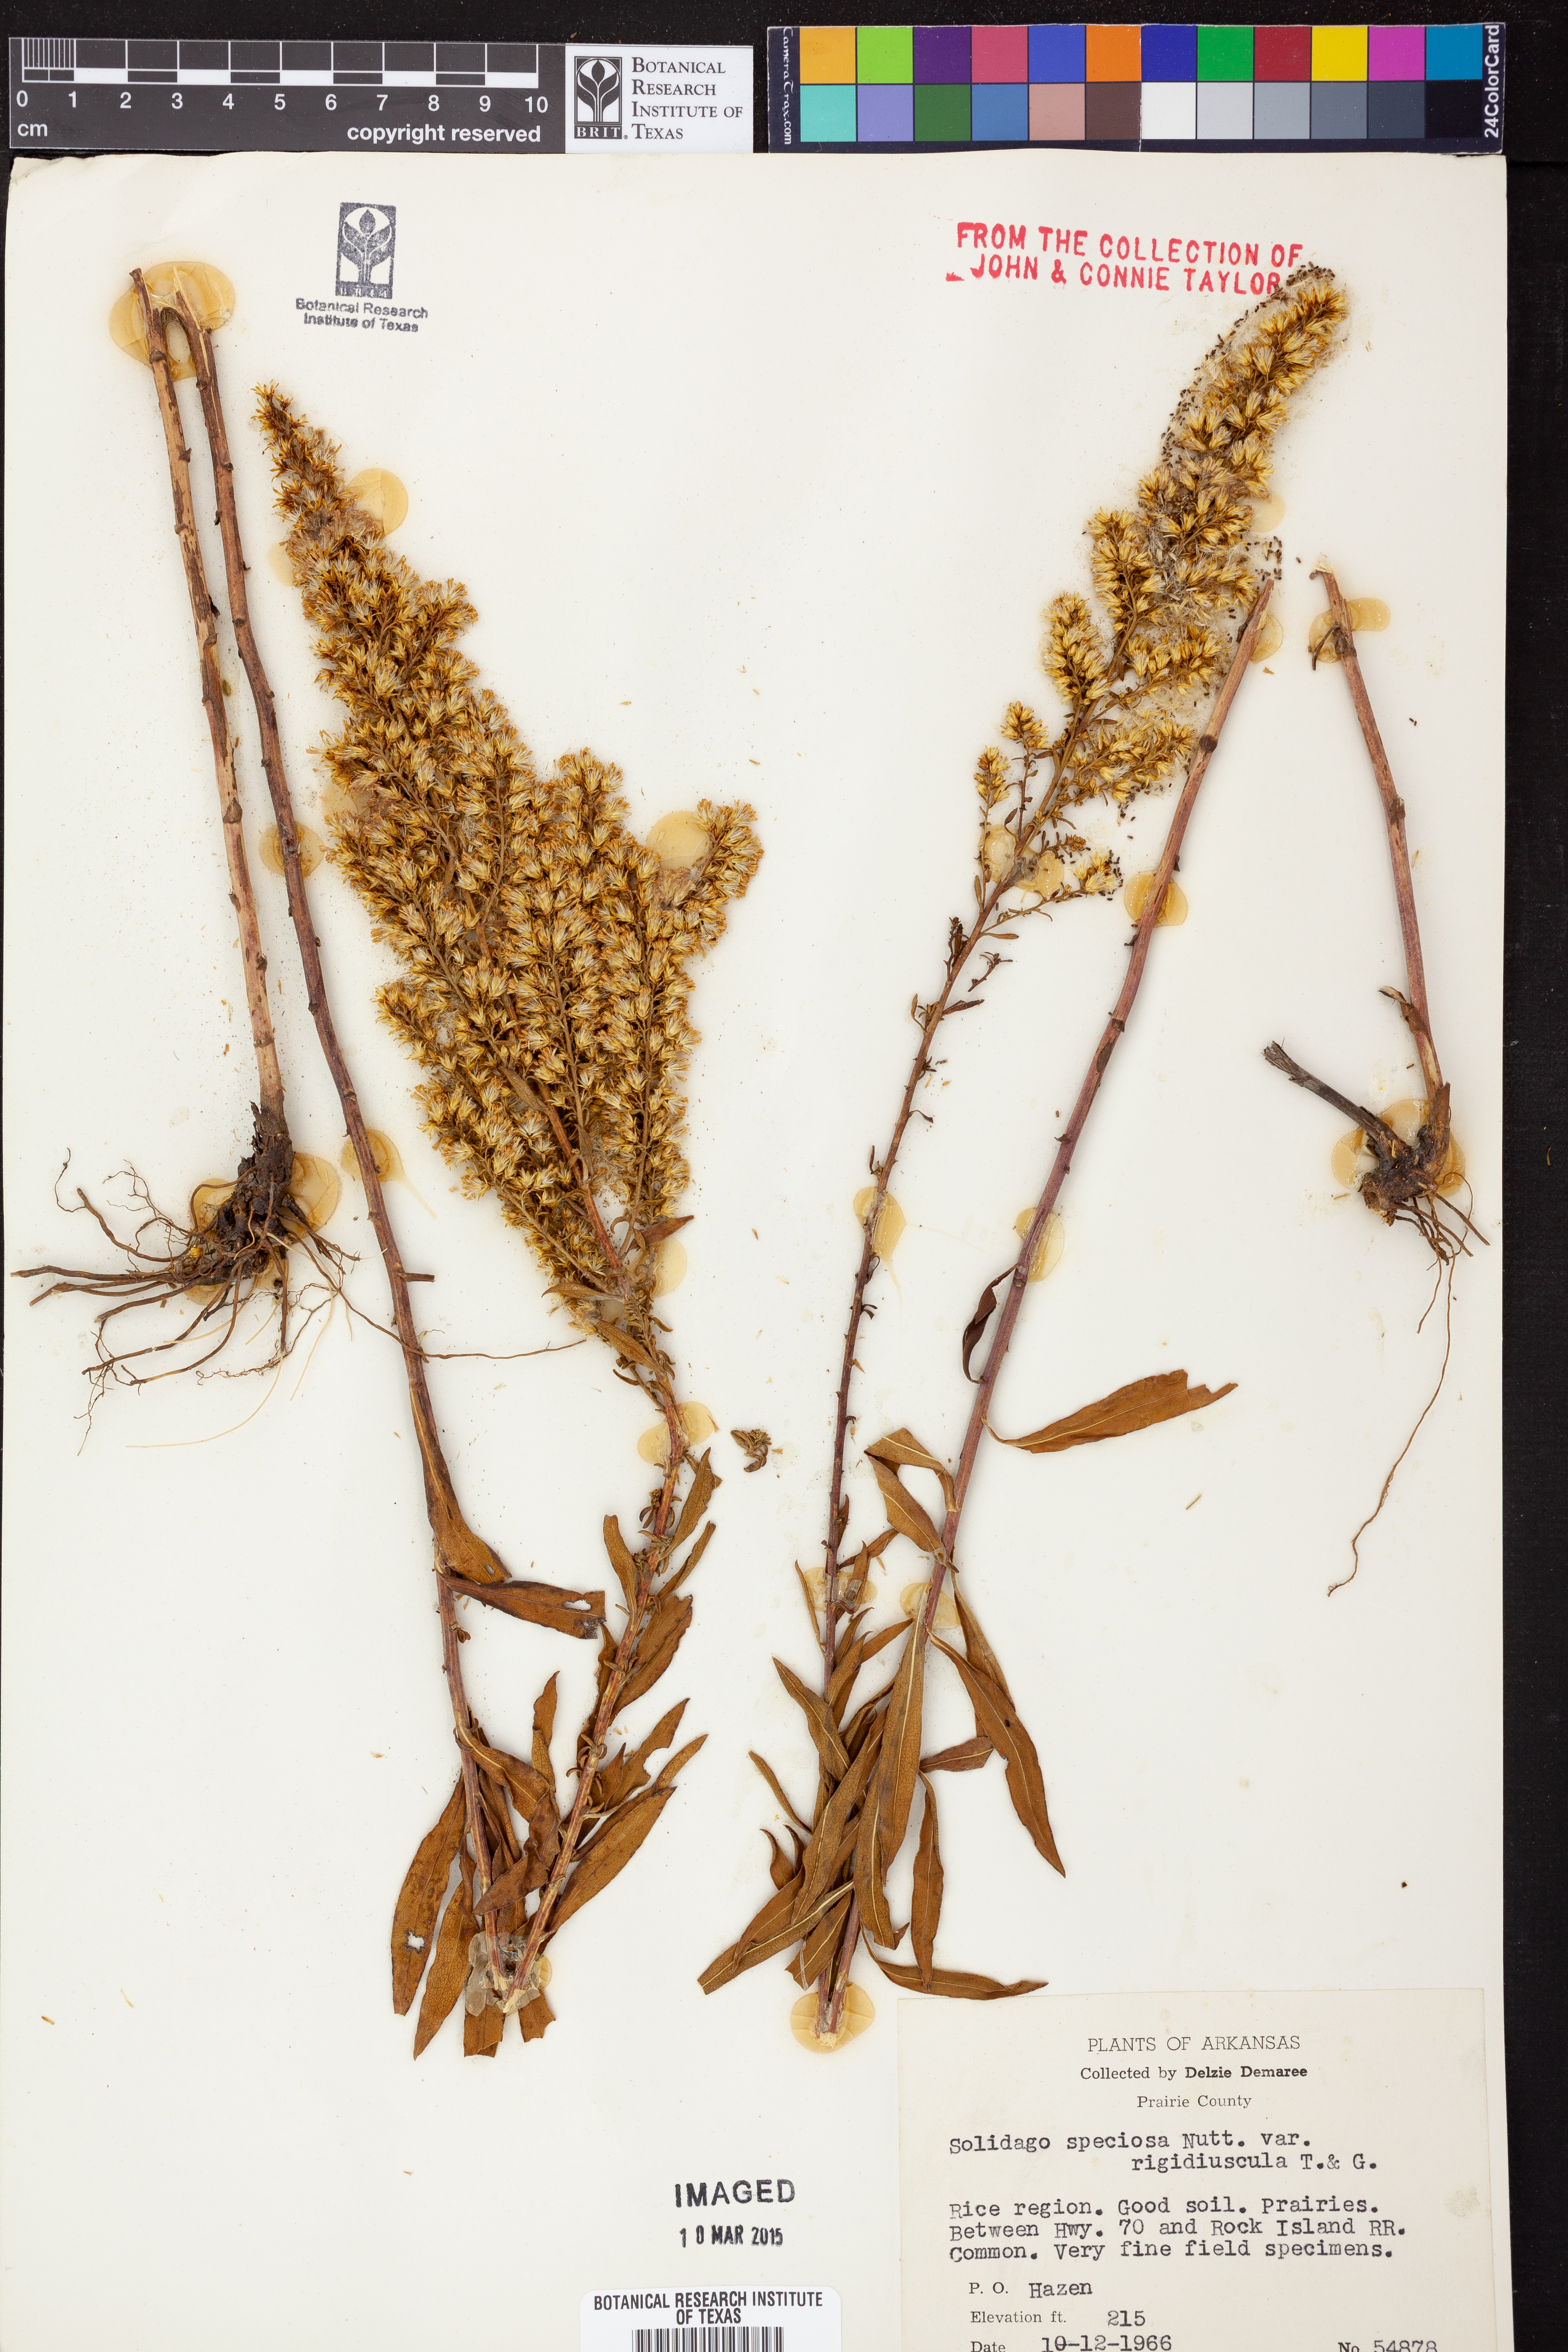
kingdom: Plantae
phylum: Tracheophyta
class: Magnoliopsida
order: Asterales
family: Asteraceae
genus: Solidago
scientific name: Solidago speciosa
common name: Showy goldenrod
